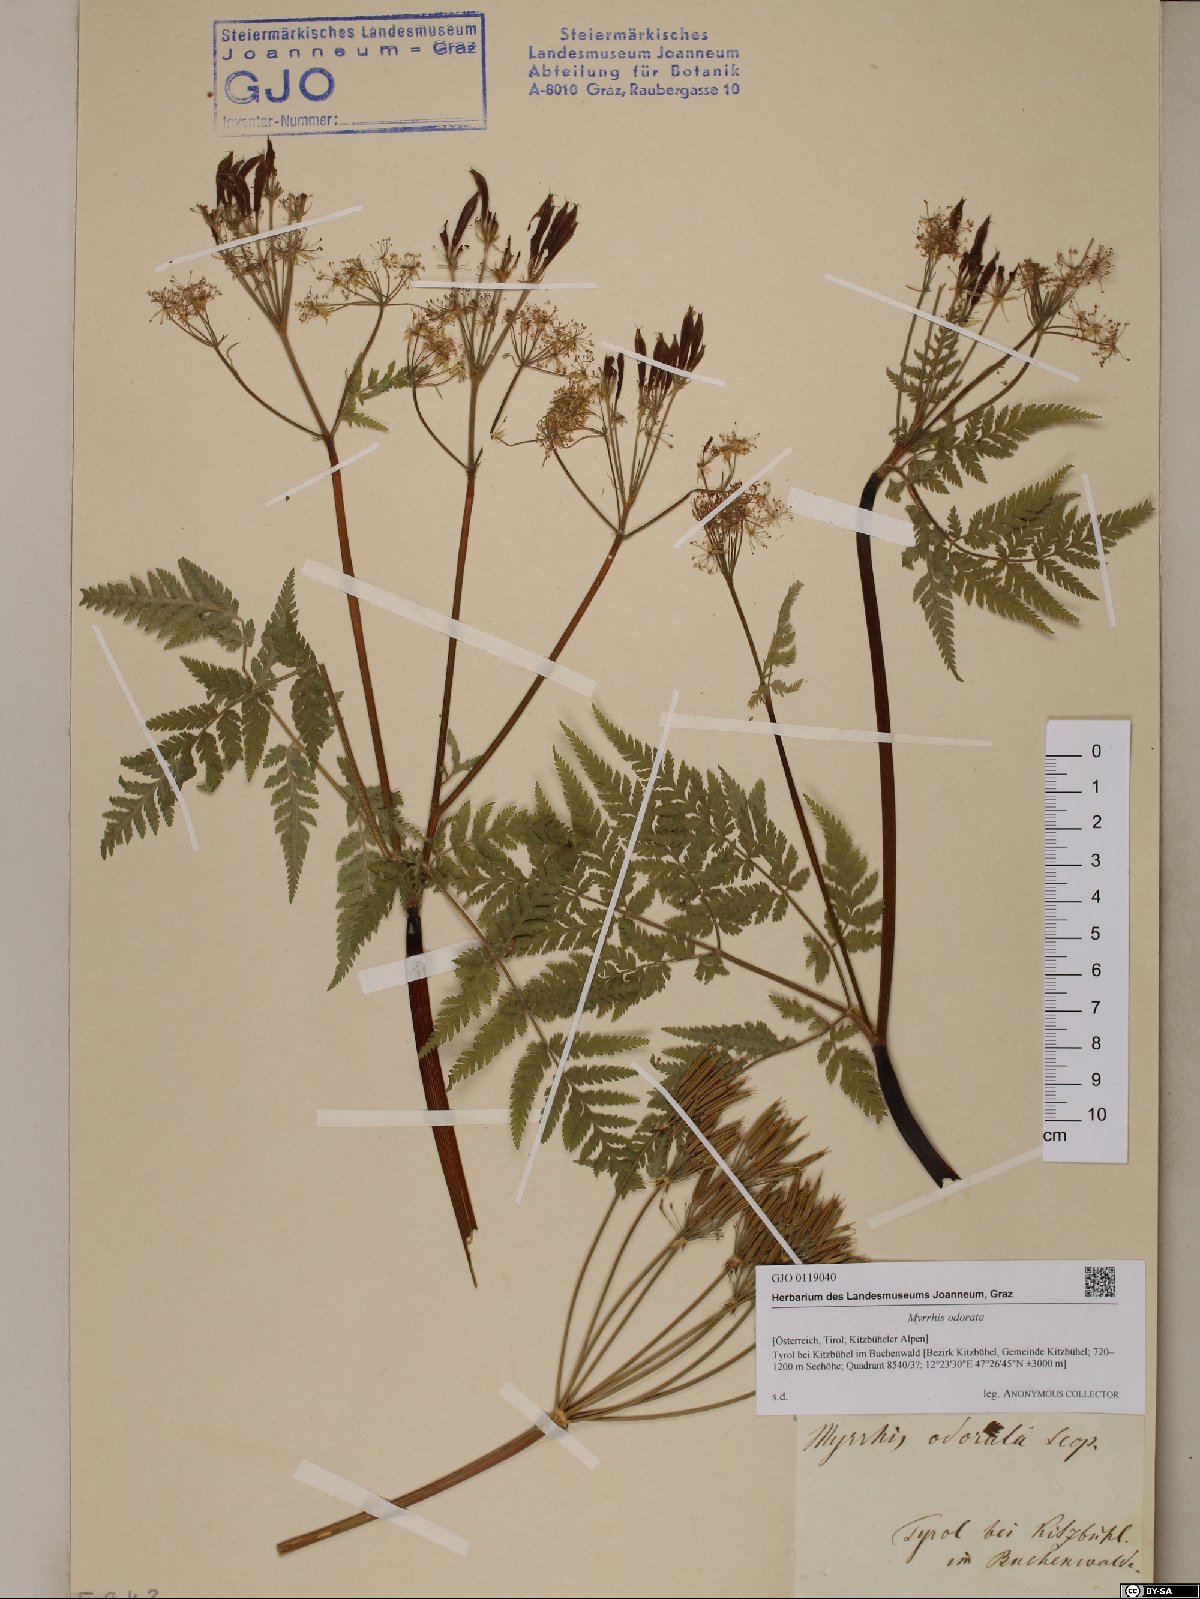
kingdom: Plantae
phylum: Tracheophyta
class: Magnoliopsida
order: Apiales
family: Apiaceae
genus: Myrrhis
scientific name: Myrrhis odorata
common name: Sweet cicely
